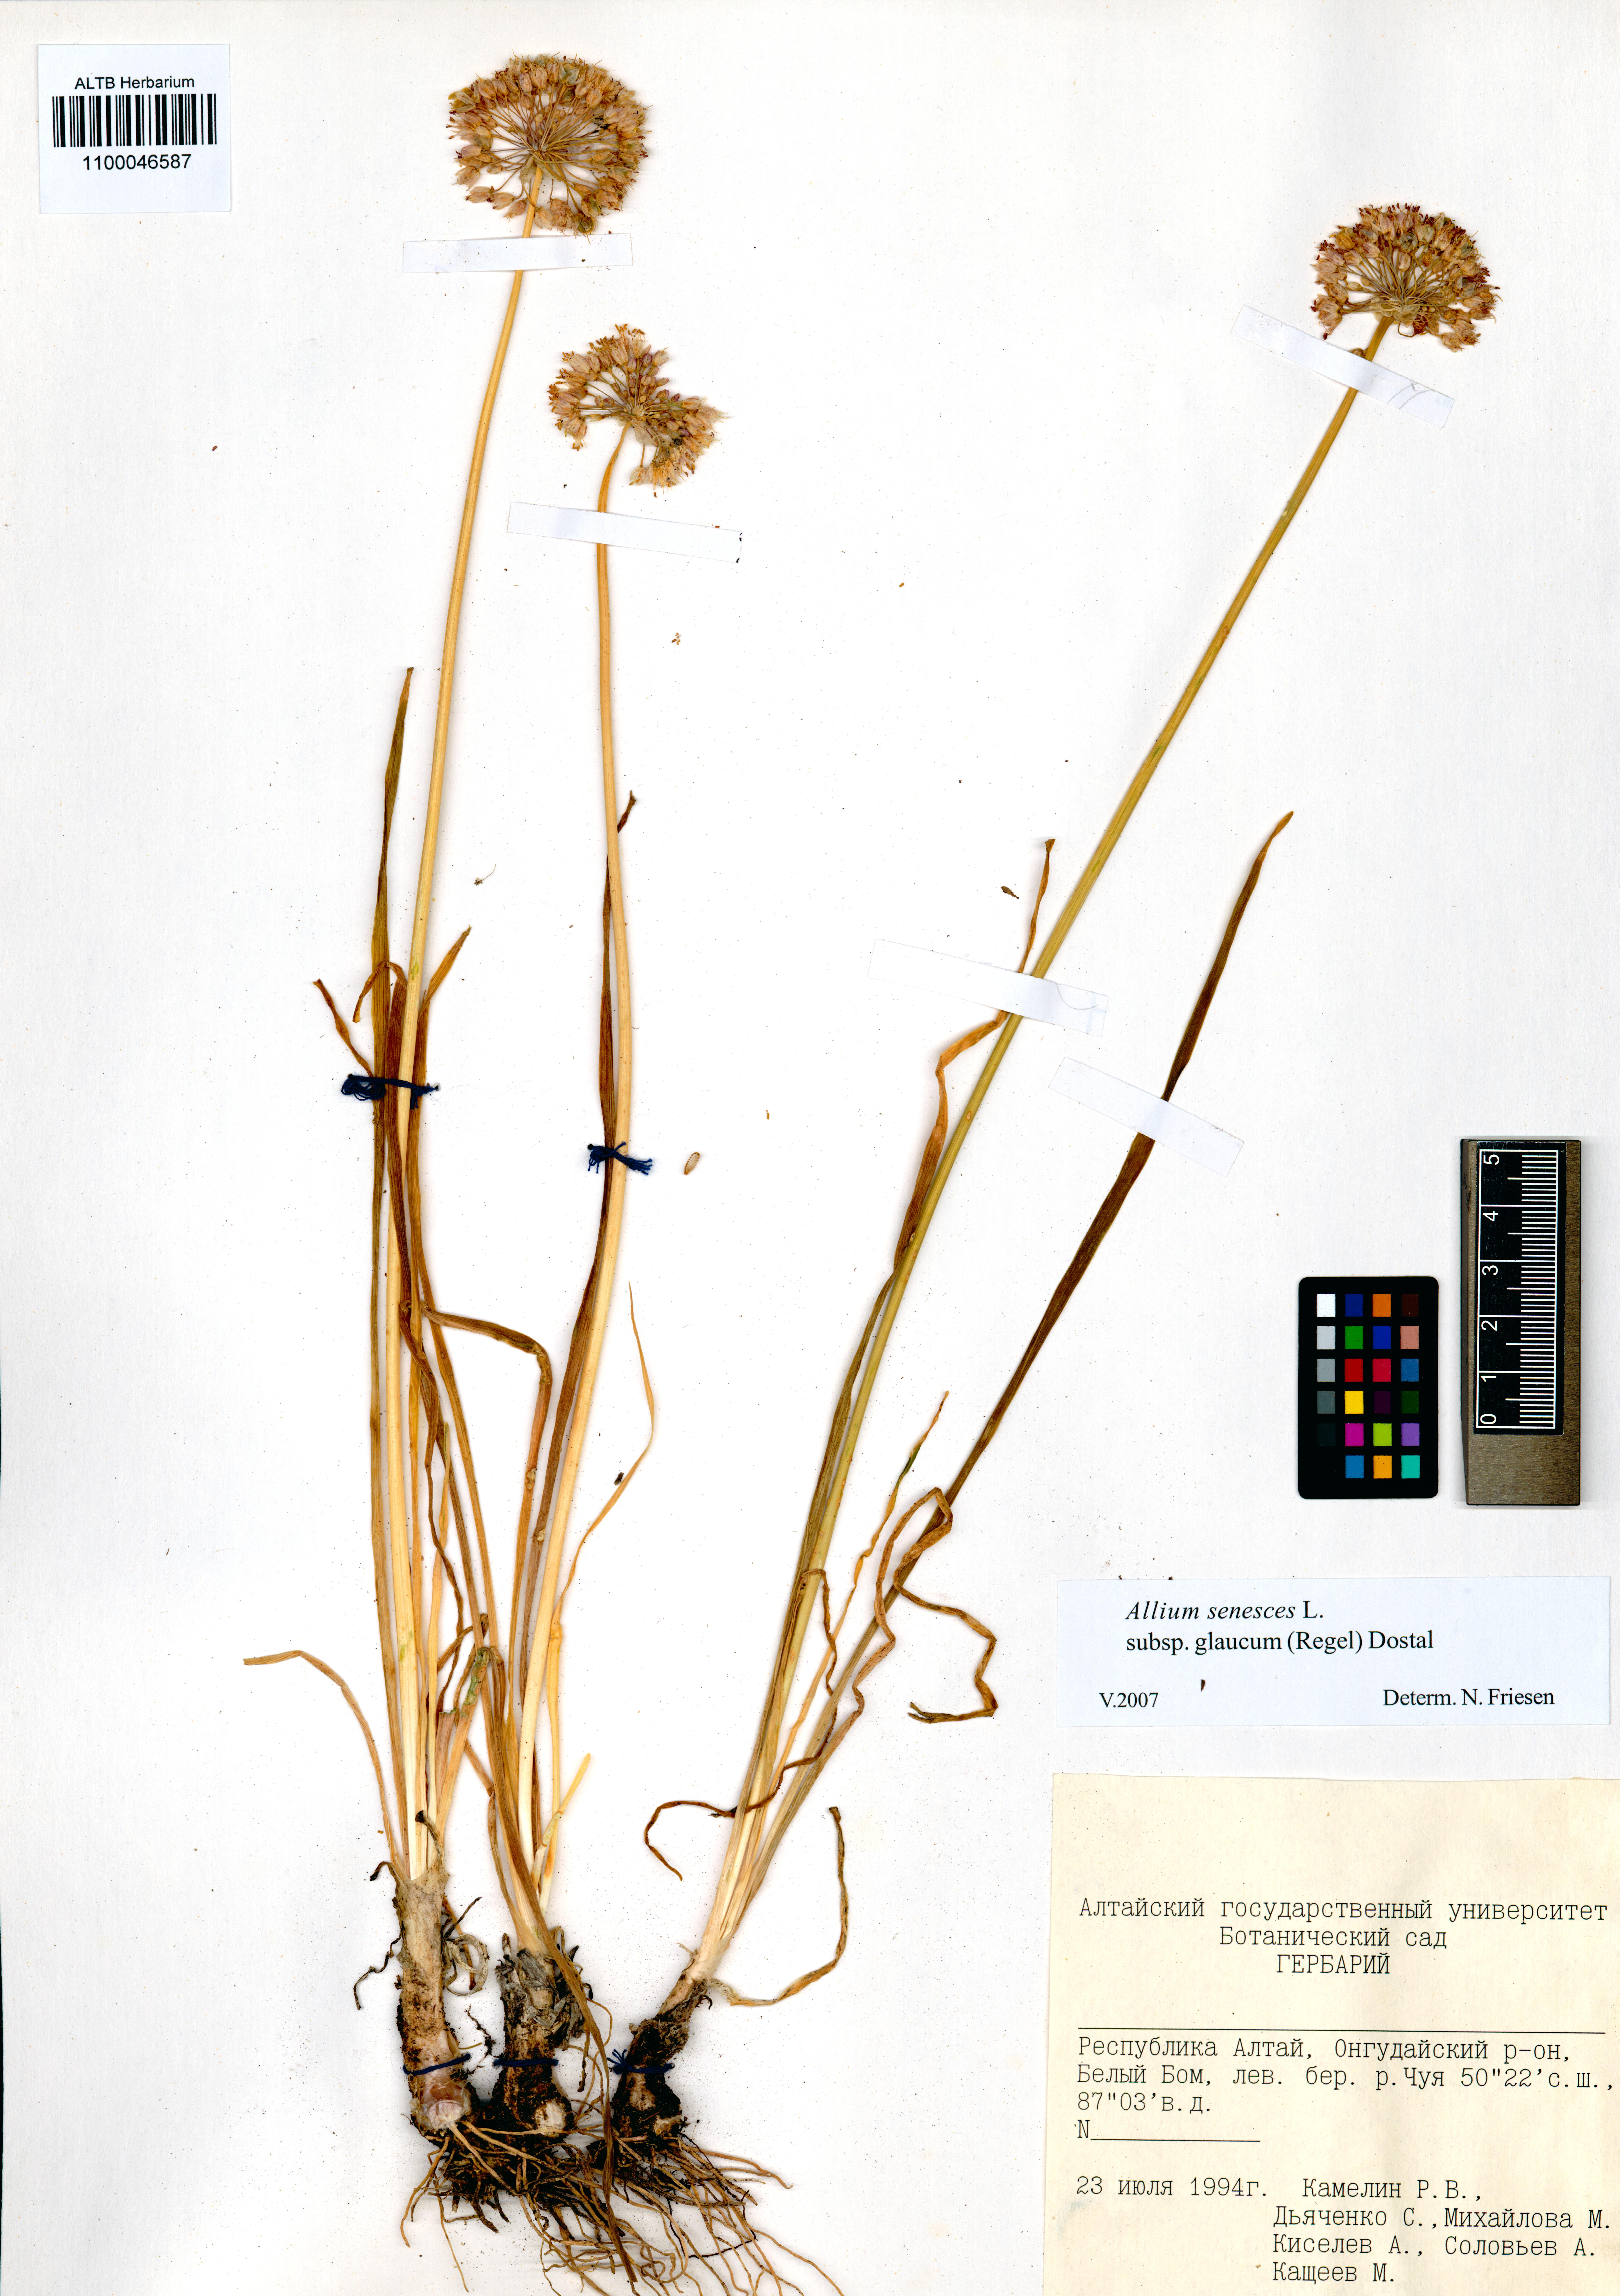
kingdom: Plantae
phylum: Tracheophyta
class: Liliopsida
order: Asparagales
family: Amaryllidaceae
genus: Allium
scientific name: Allium senescens
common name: German garlic
